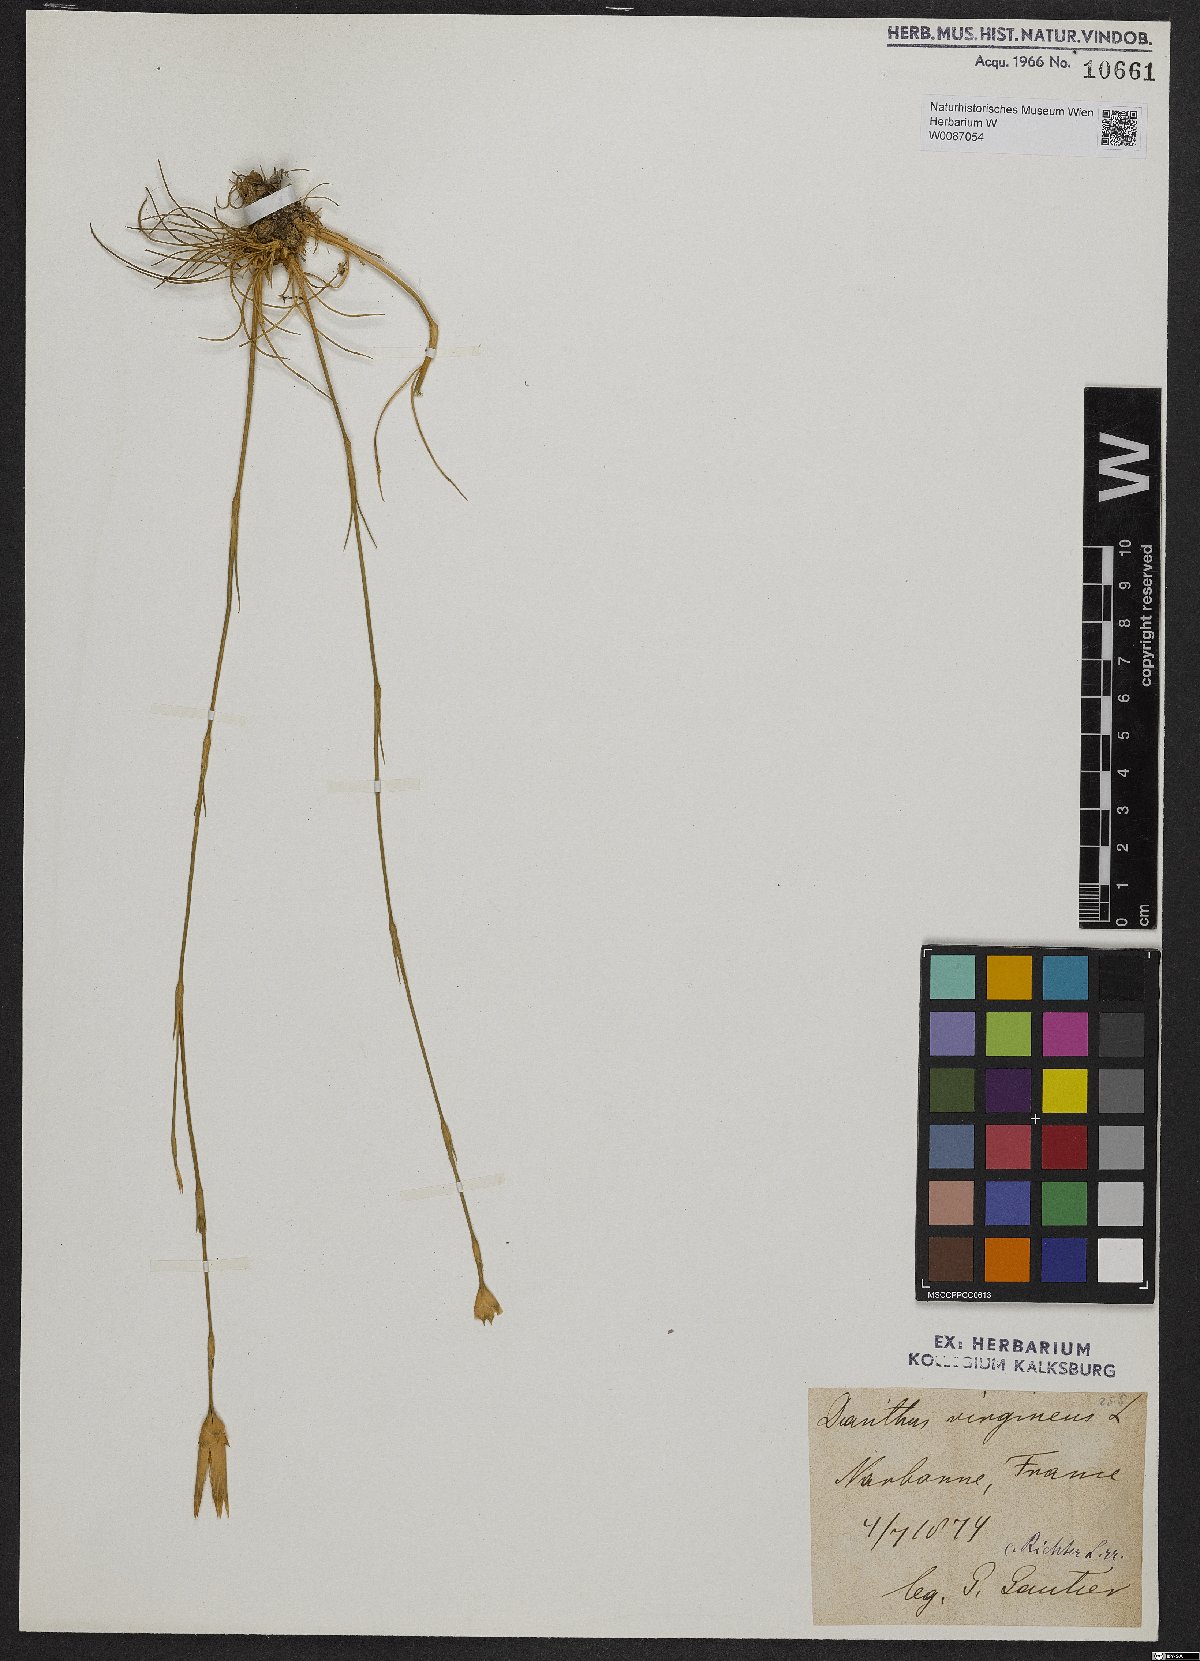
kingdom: Plantae
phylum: Tracheophyta
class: Magnoliopsida
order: Caryophyllales
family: Caryophyllaceae
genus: Dianthus
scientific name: Dianthus virgineus
